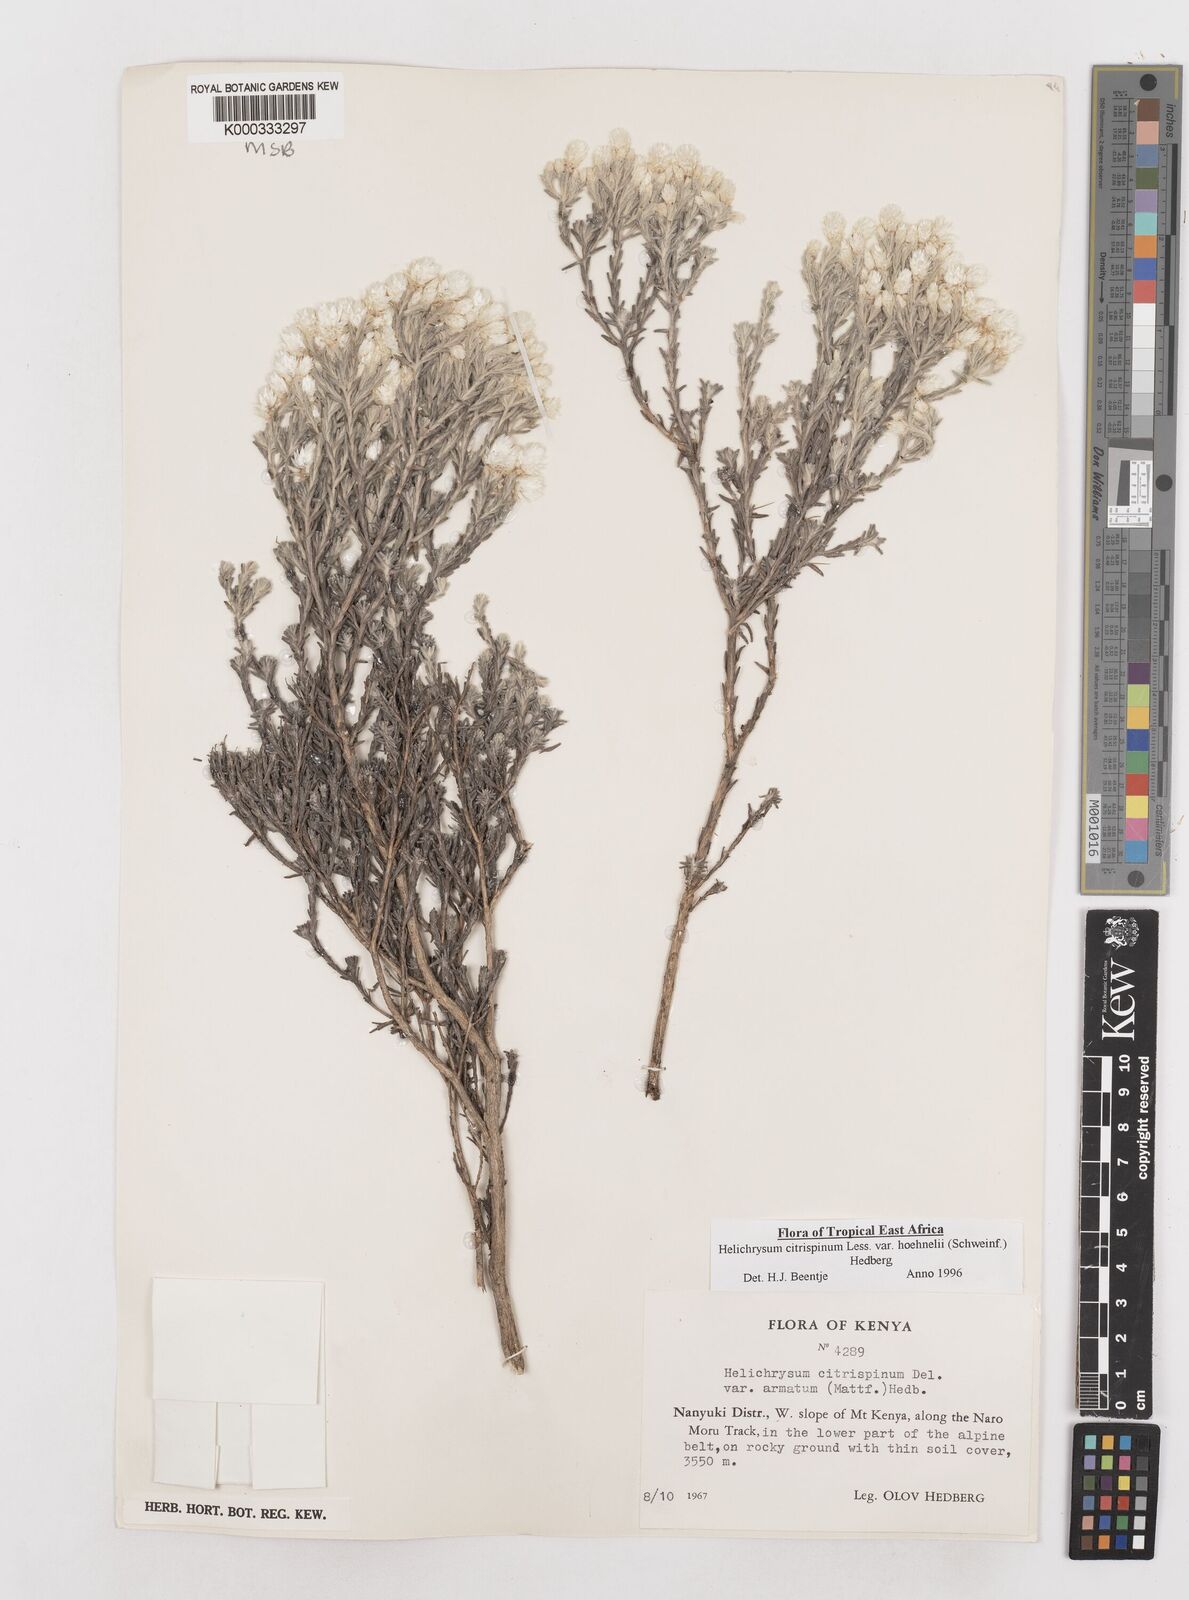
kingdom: Plantae
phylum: Tracheophyta
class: Magnoliopsida
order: Asterales
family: Asteraceae
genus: Helichrysum
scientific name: Helichrysum citrispinum
